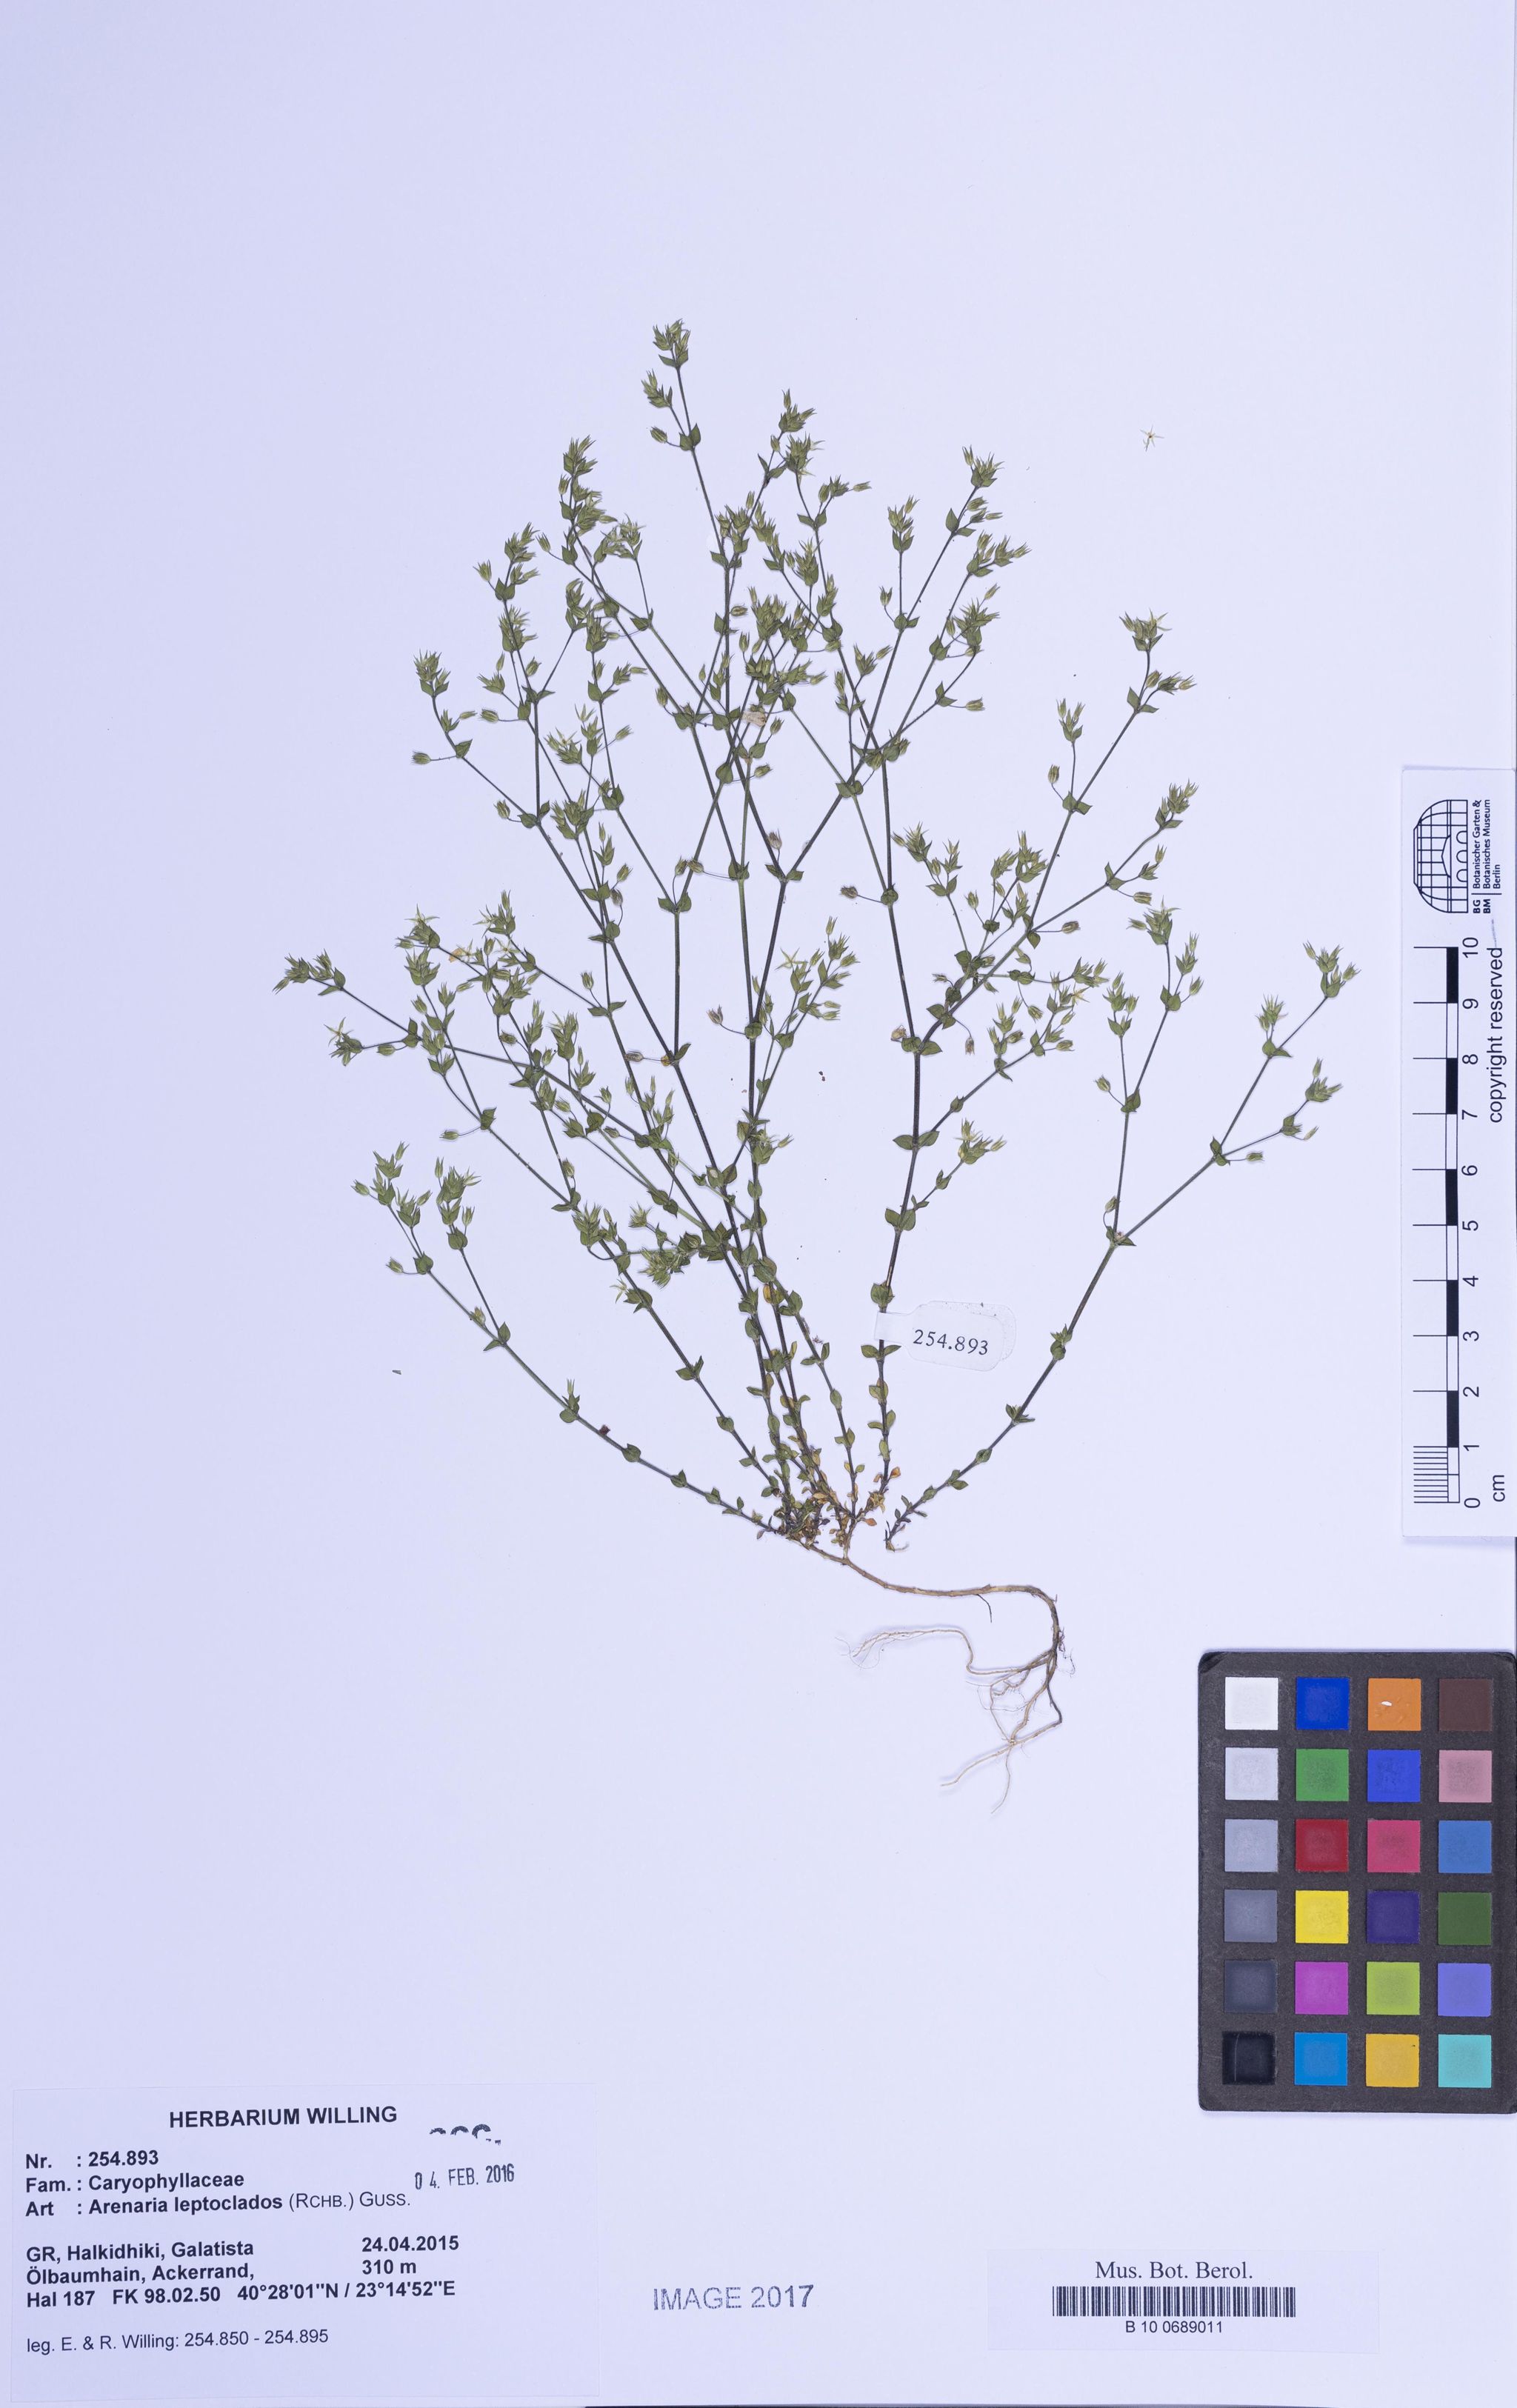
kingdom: Plantae
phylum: Tracheophyta
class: Magnoliopsida
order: Caryophyllales
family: Caryophyllaceae
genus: Arenaria
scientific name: Arenaria leptoclados
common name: Thyme-leaved sandwort
